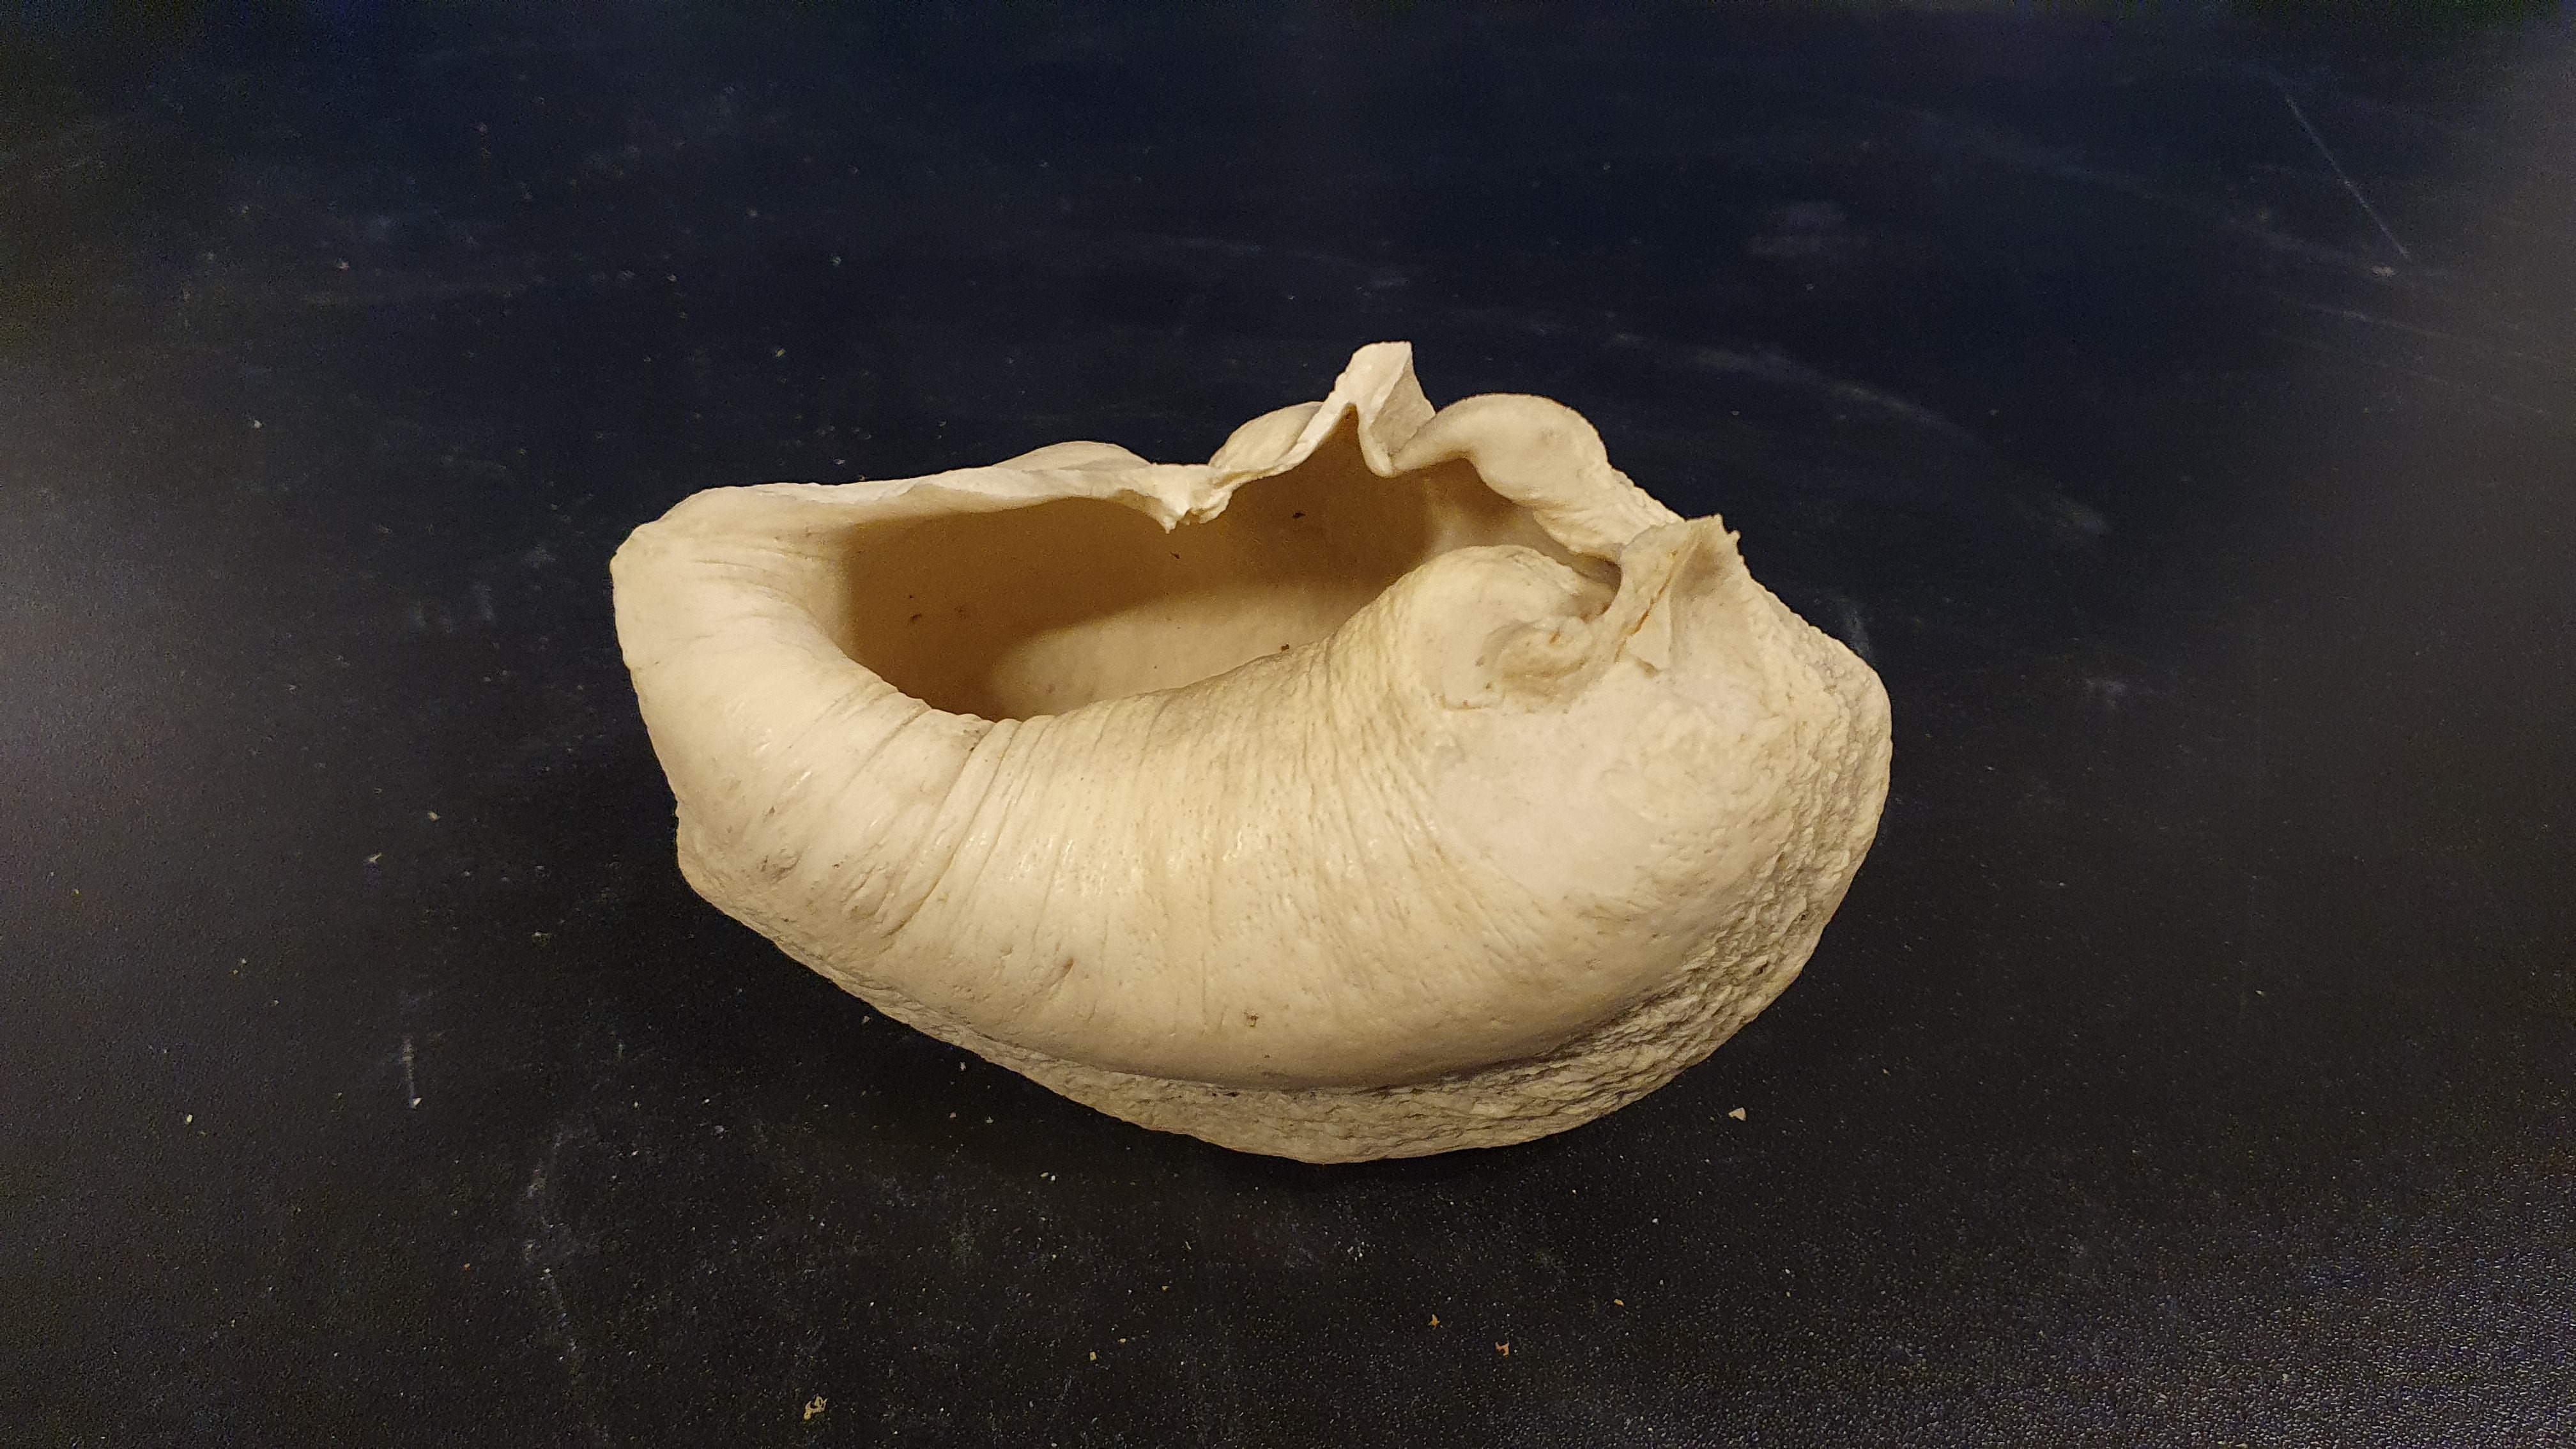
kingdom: Animalia
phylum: Chordata
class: Mammalia
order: Cetacea
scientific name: Cetacea
